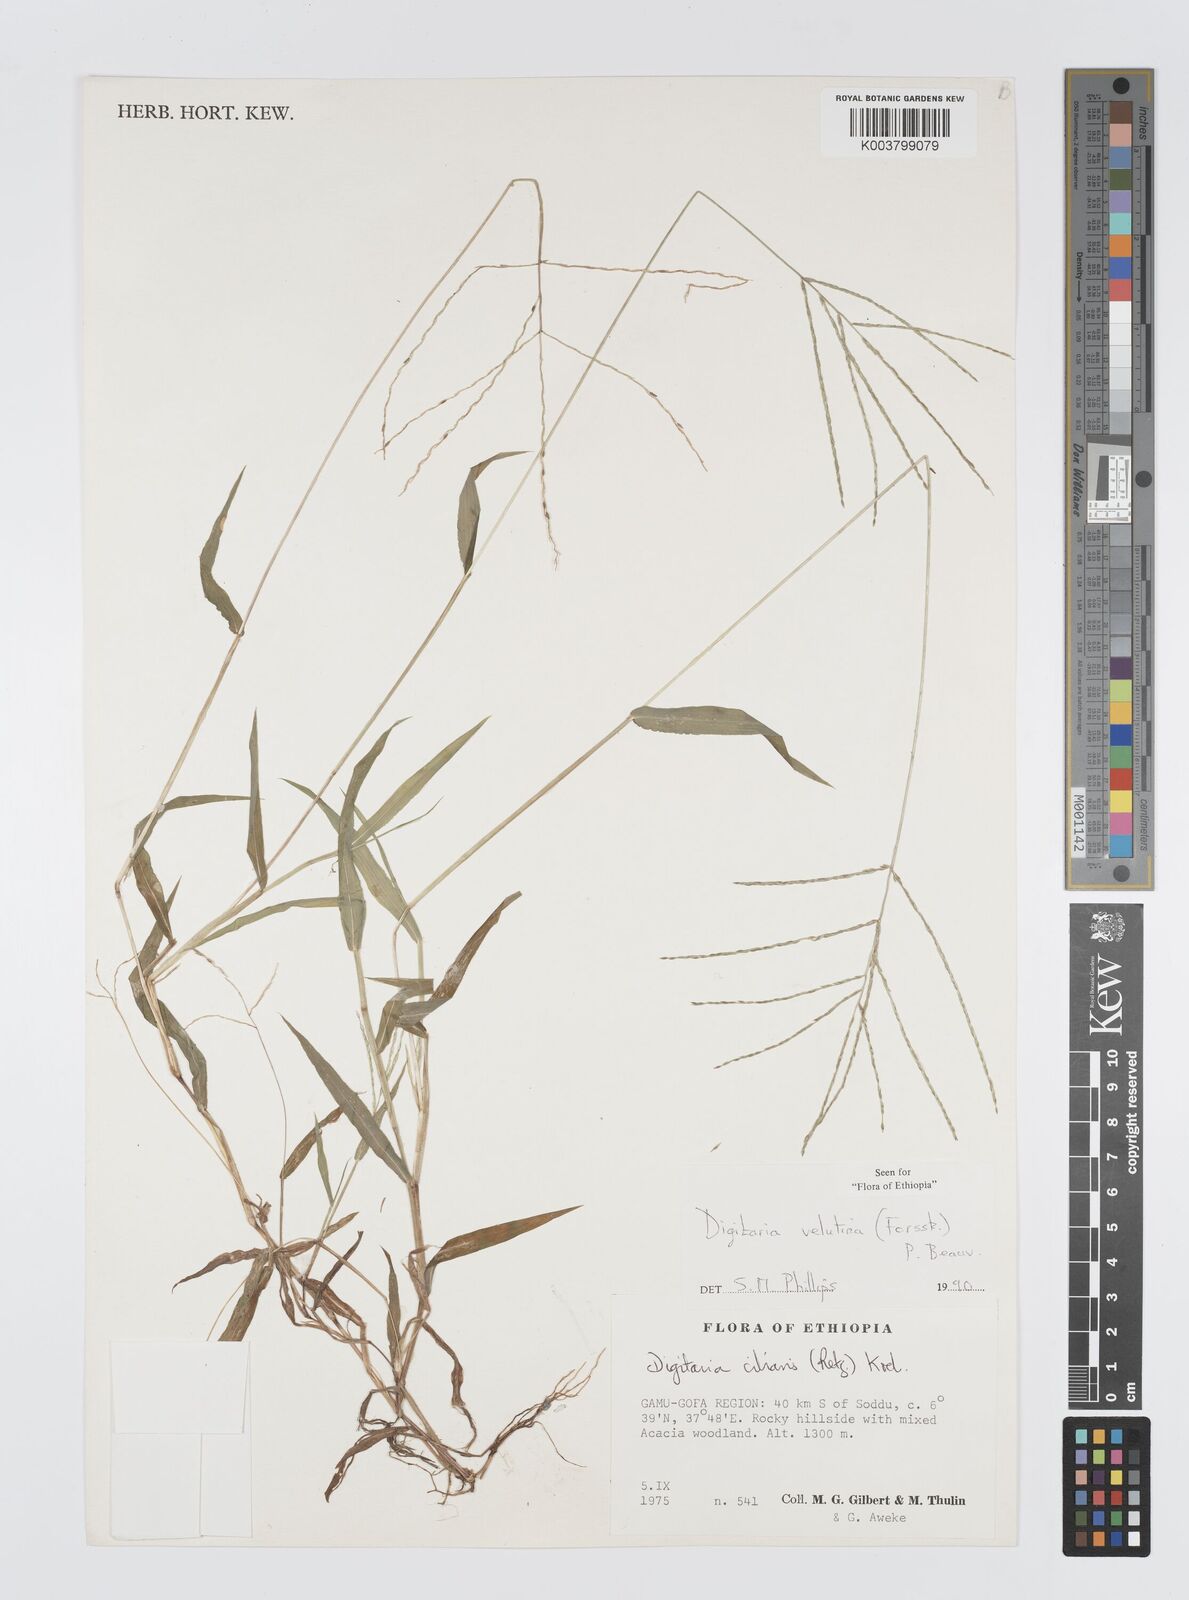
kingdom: Plantae
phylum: Tracheophyta
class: Liliopsida
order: Poales
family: Poaceae
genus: Digitaria
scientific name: Digitaria velutina
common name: Long-plume finger grass
